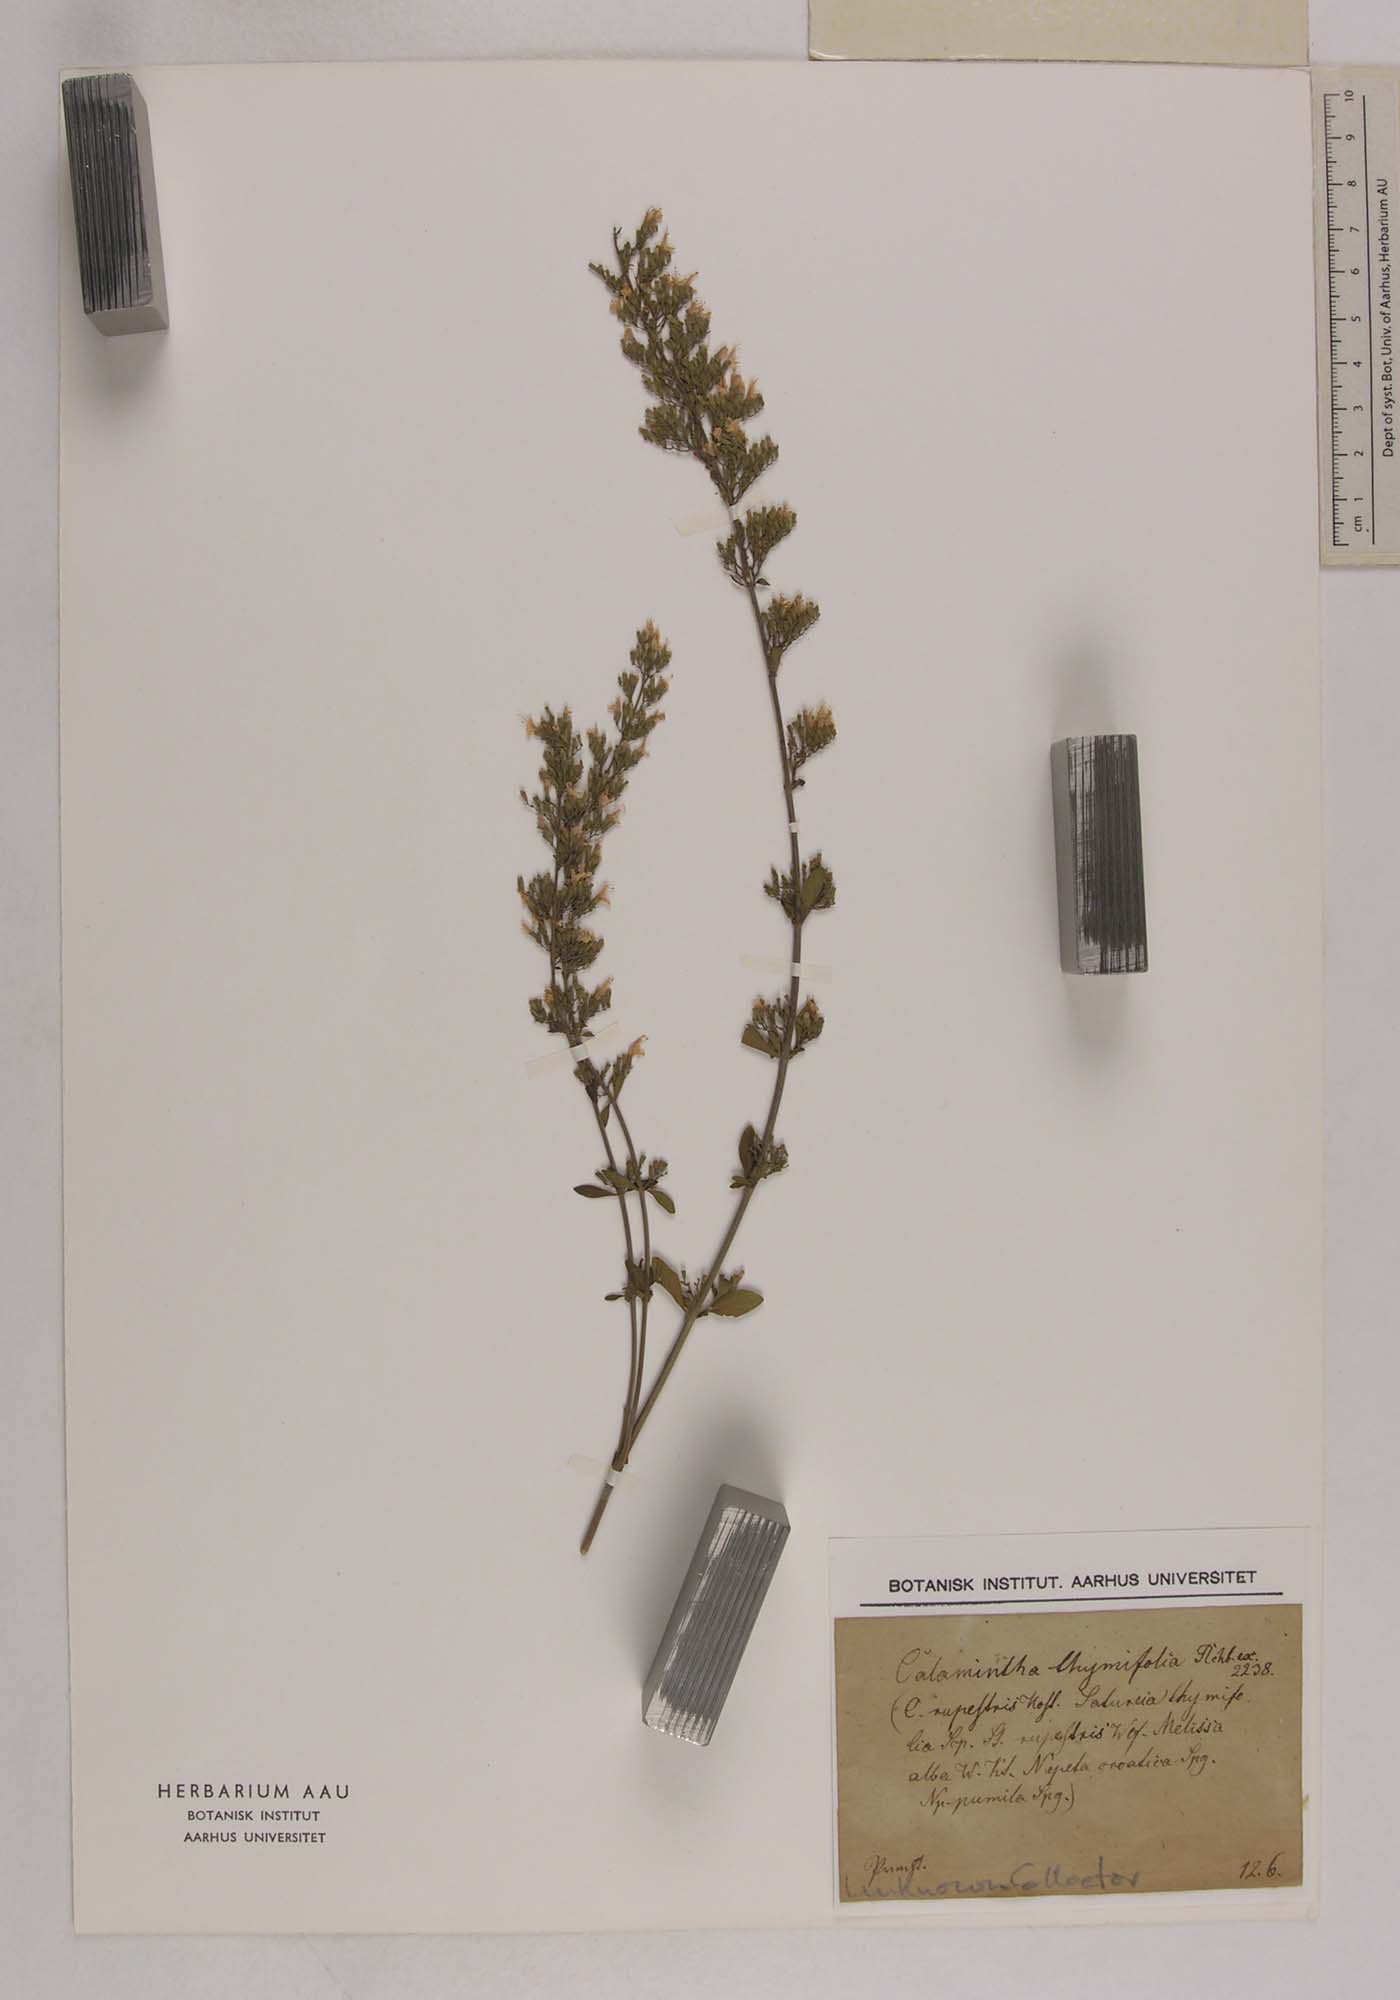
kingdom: Plantae
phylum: Tracheophyta
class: Magnoliopsida
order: Lamiales
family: Lamiaceae
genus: Clinopodium
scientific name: Clinopodium album
